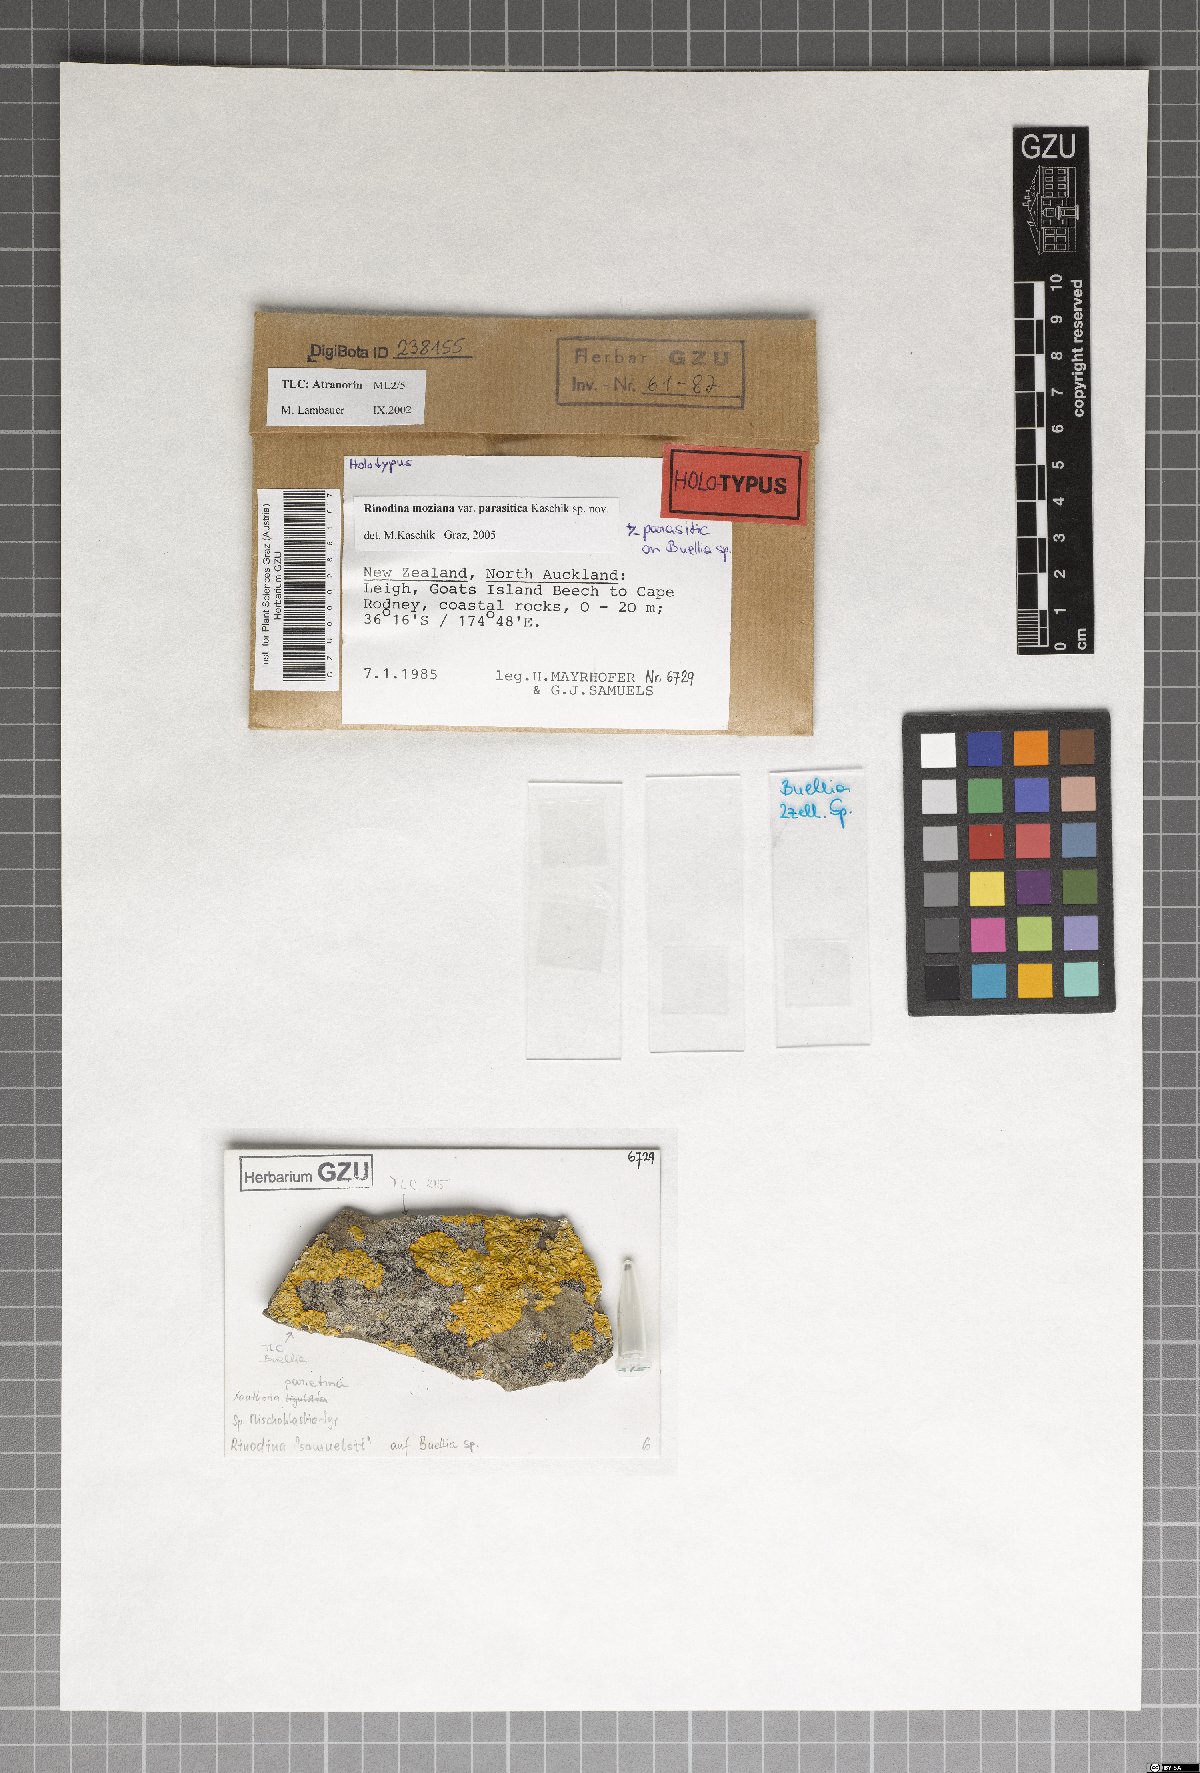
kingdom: Fungi
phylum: Ascomycota
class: Lecanoromycetes
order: Caliciales
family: Physciaceae
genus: Rinodina
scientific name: Rinodina moziana
